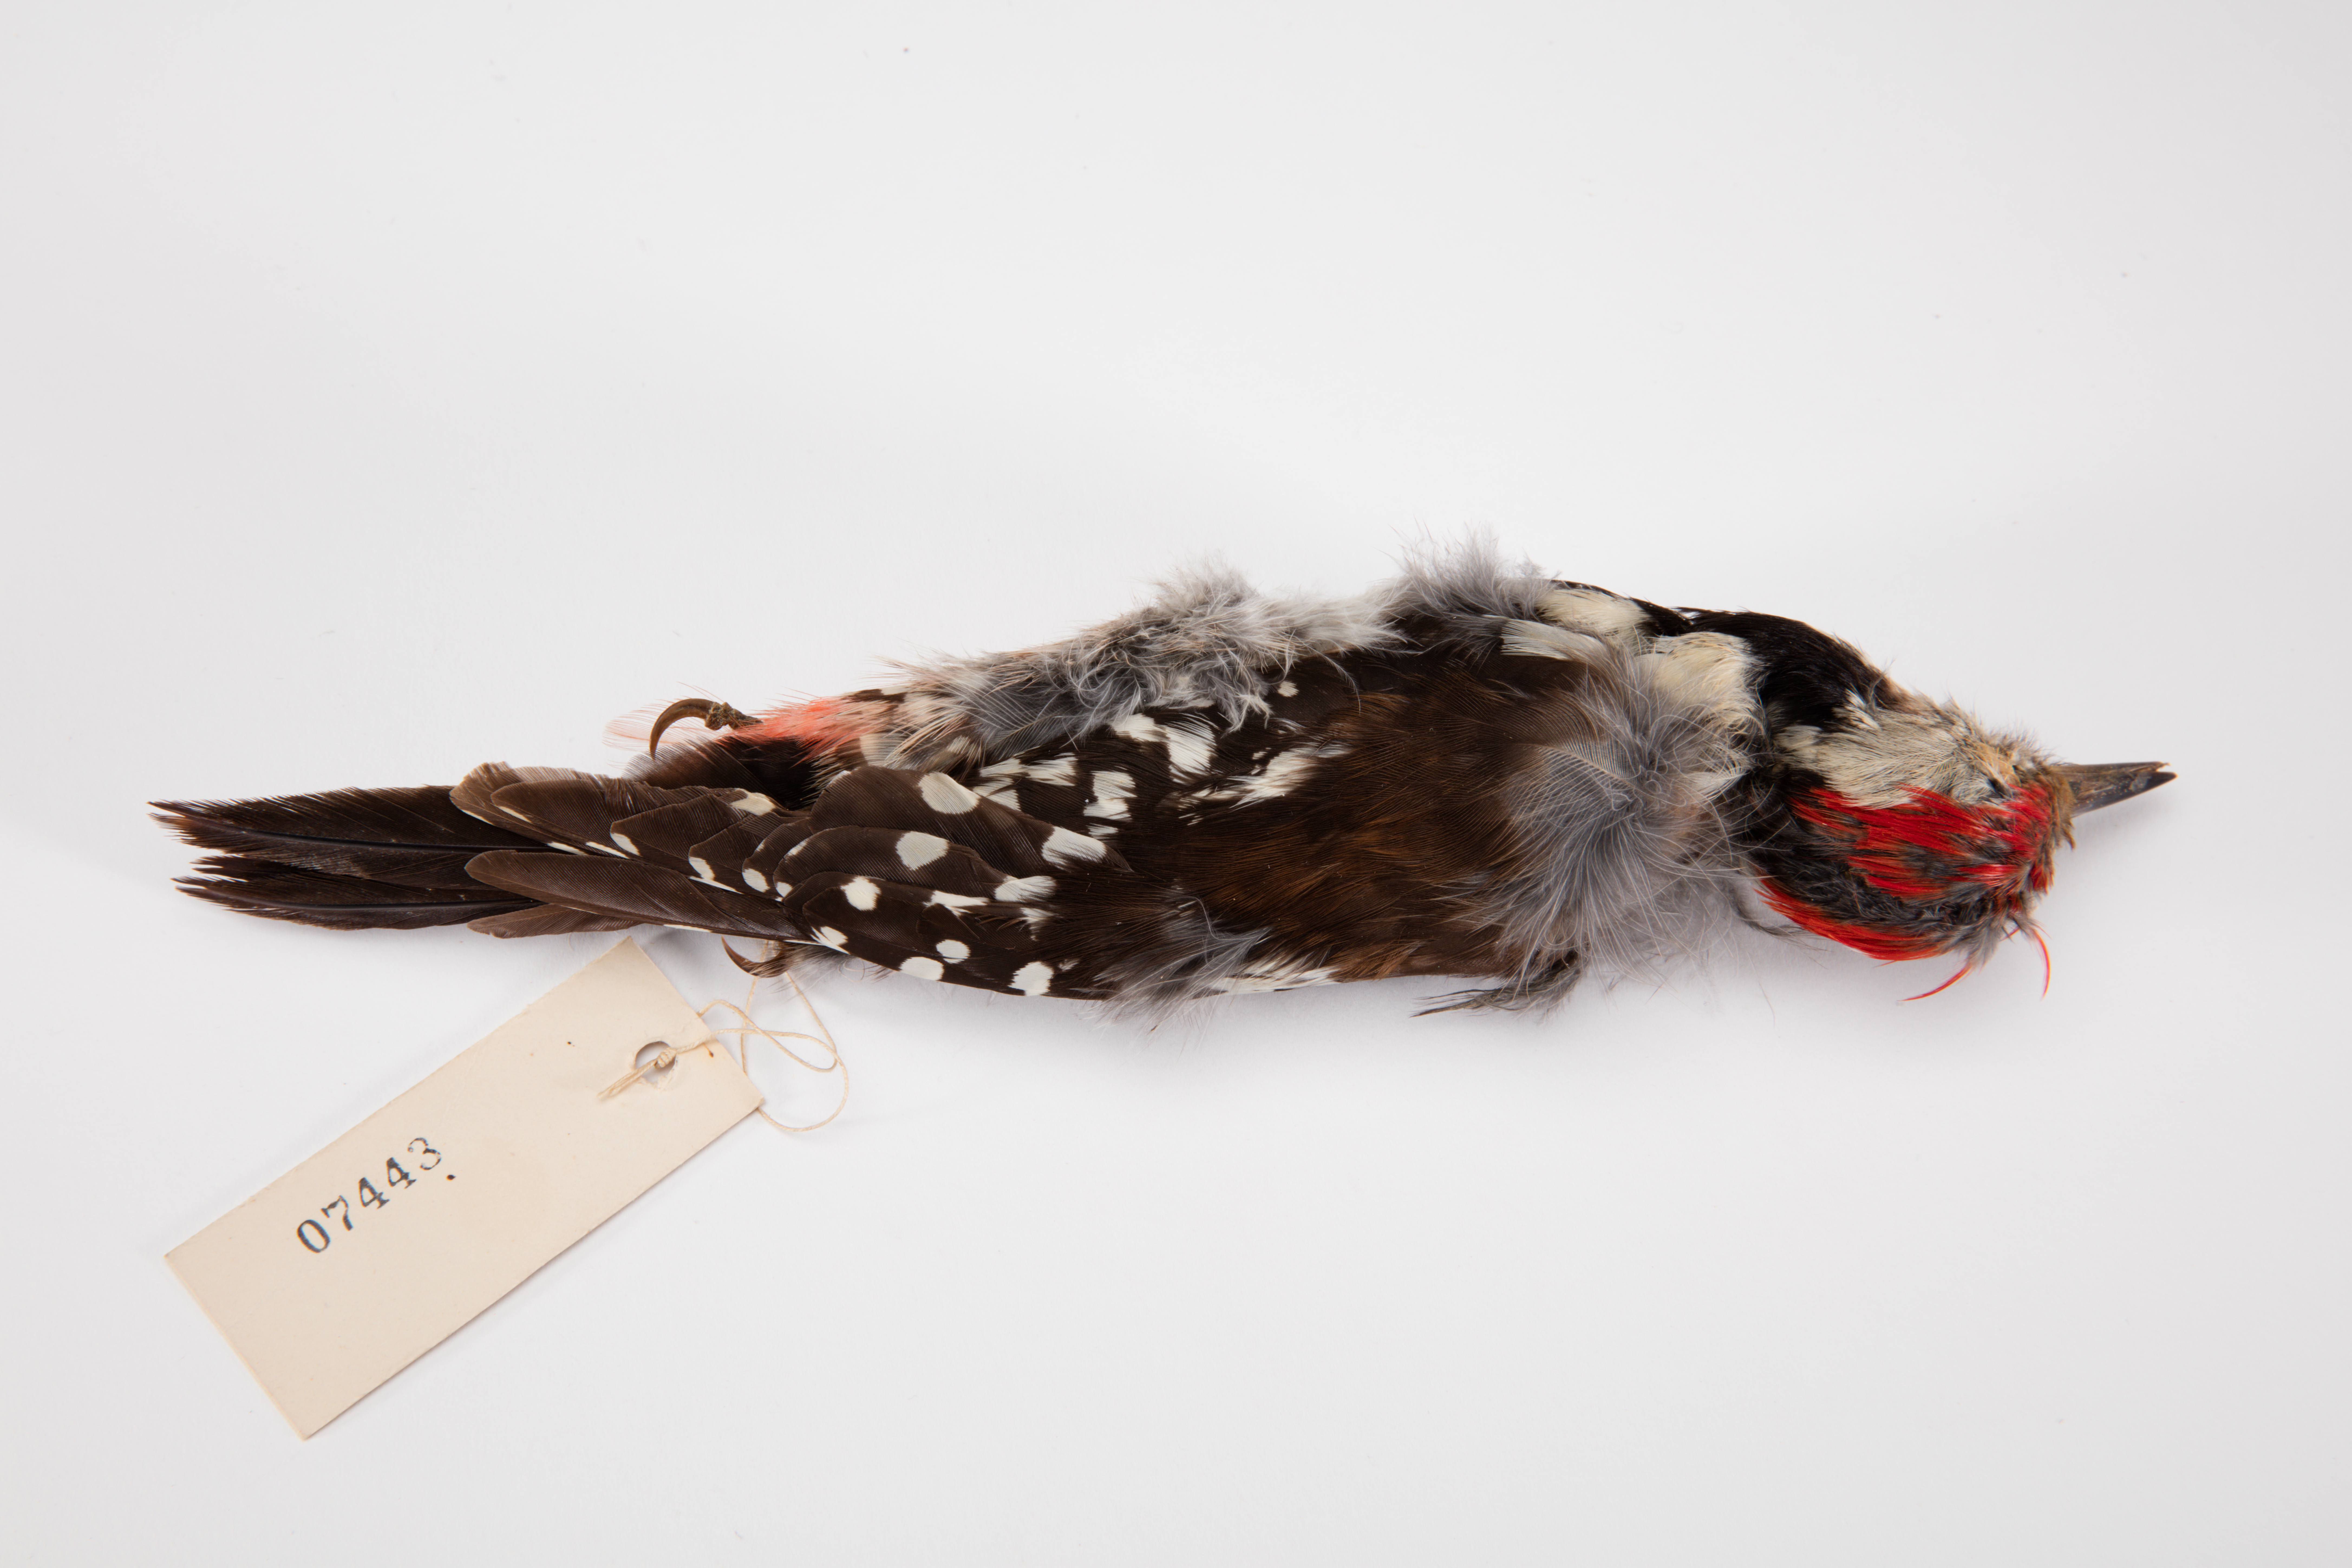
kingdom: Animalia
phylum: Chordata
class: Aves
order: Piciformes
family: Picidae
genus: Dendrocoptes
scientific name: Dendrocoptes medius
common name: Middle spotted woodpecker
